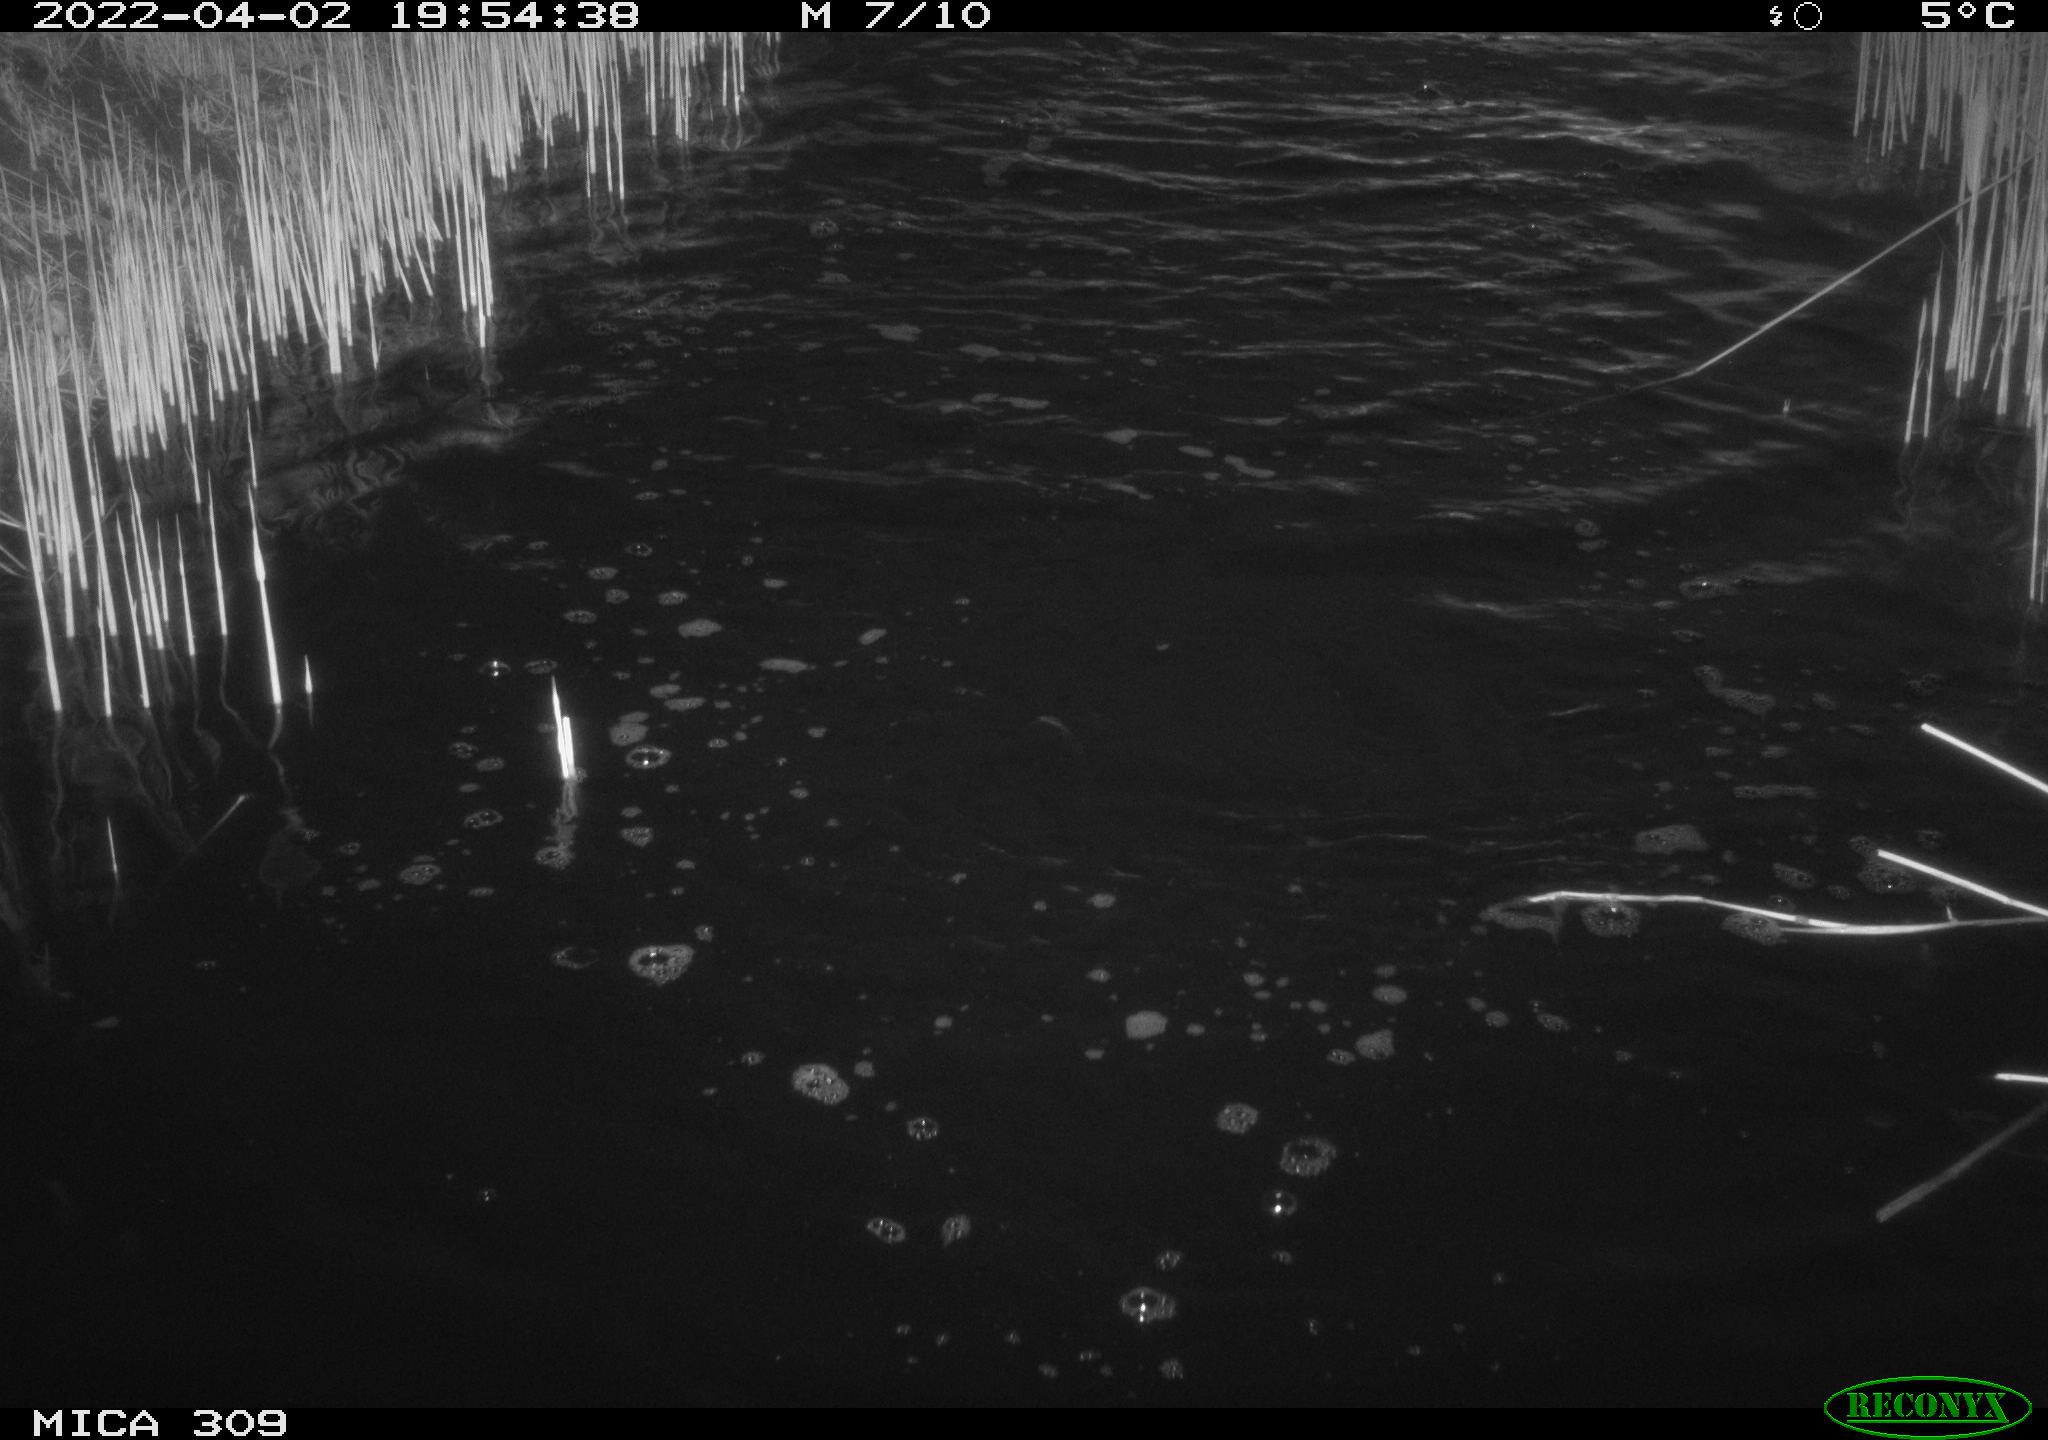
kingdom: Animalia
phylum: Chordata
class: Aves
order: Gruiformes
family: Rallidae
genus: Gallinula
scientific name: Gallinula chloropus
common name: Common moorhen
